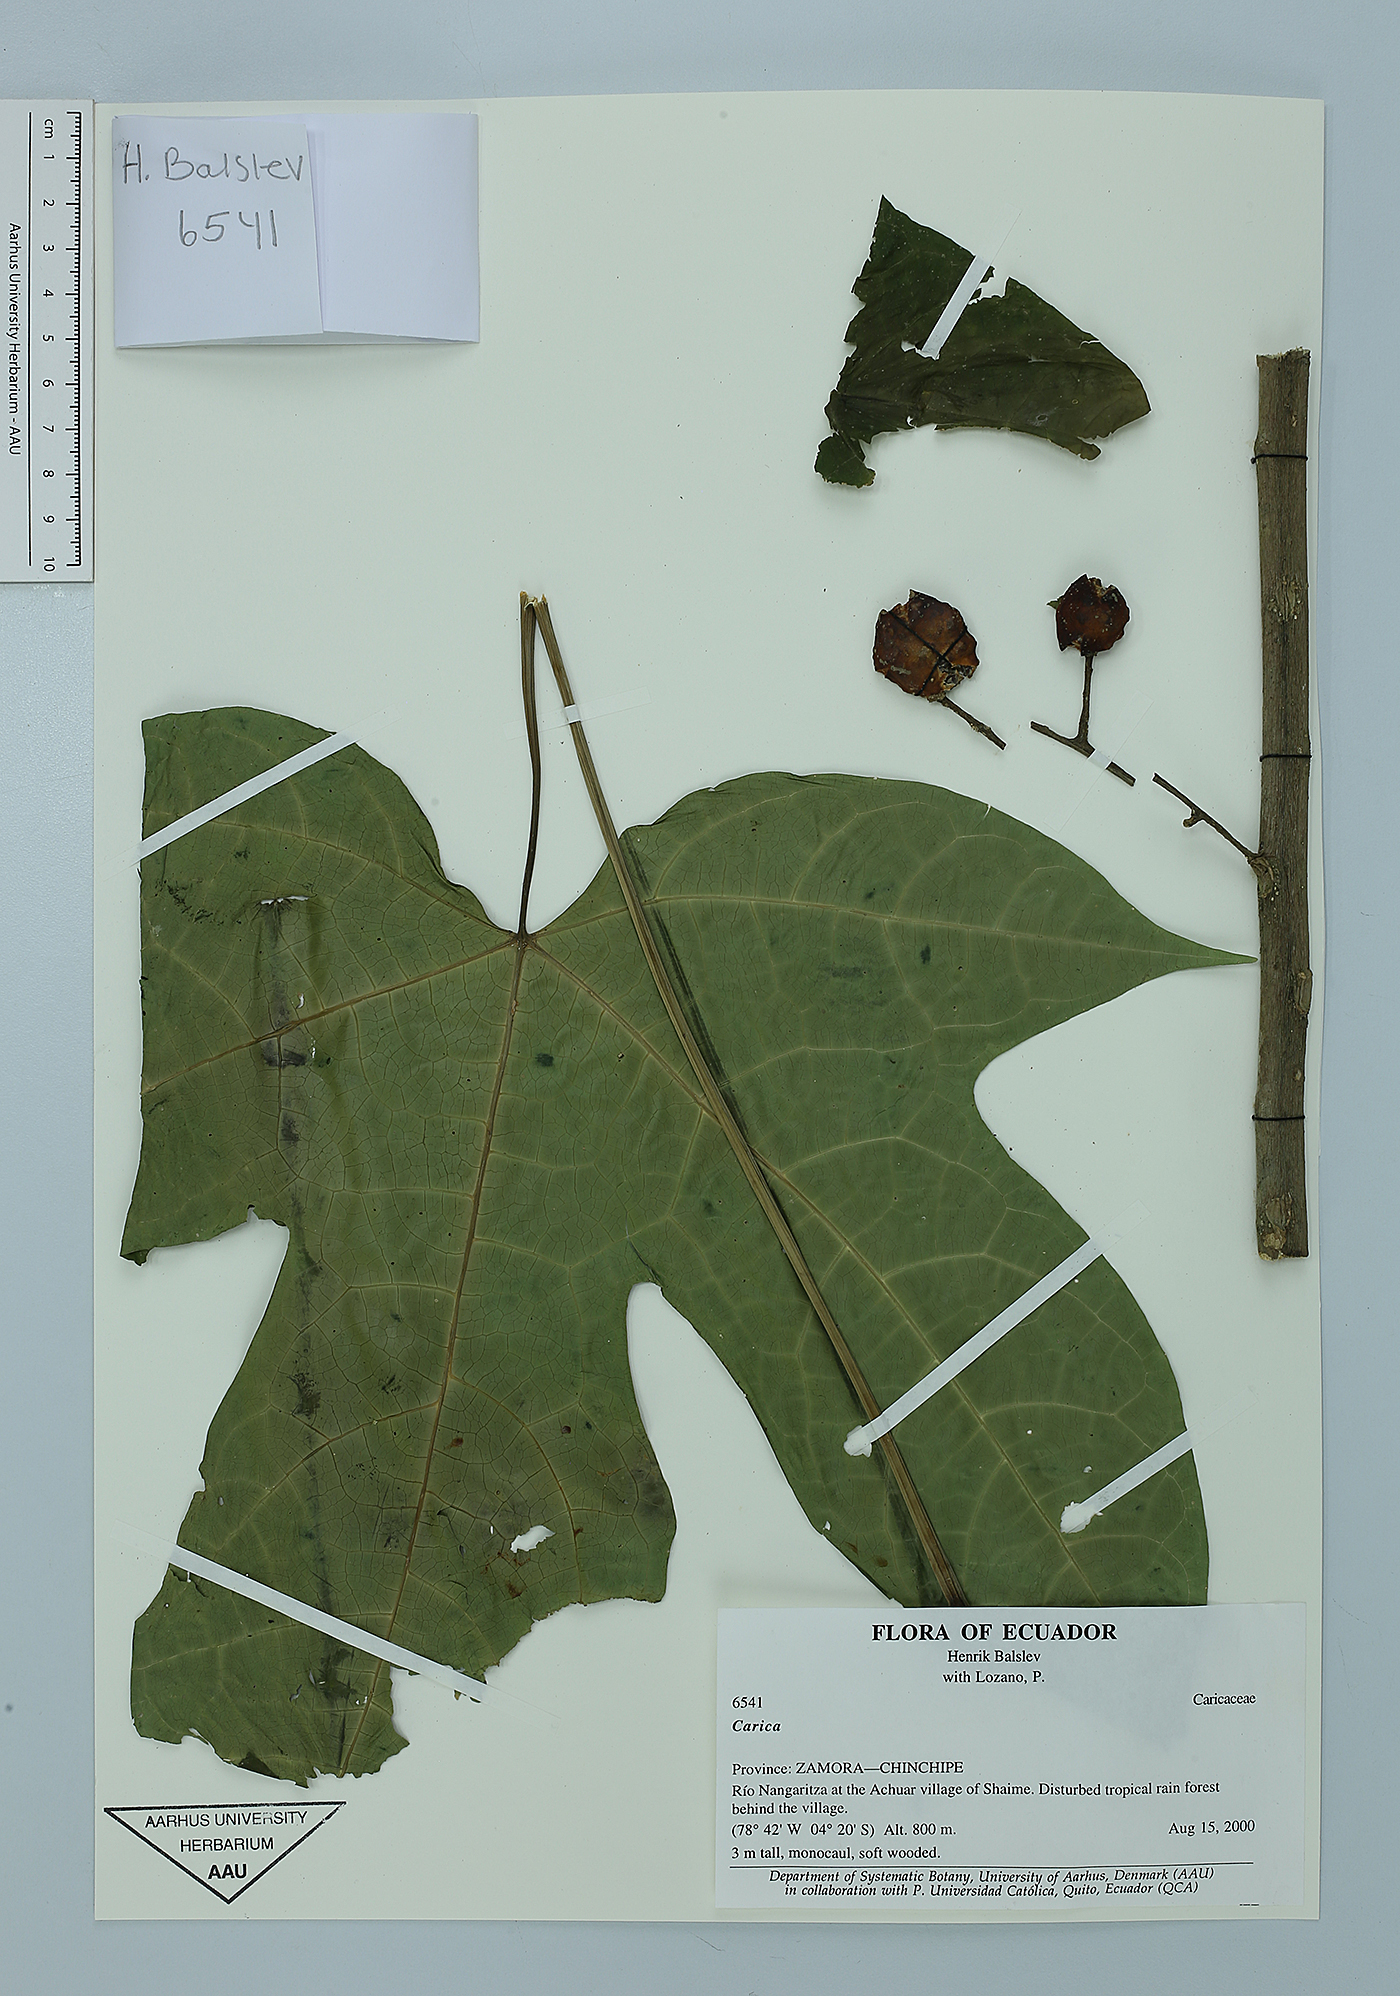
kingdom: Plantae
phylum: Tracheophyta
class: Magnoliopsida
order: Brassicales
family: Caricaceae
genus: Vasconcellea
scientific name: Vasconcellea microcarpa
